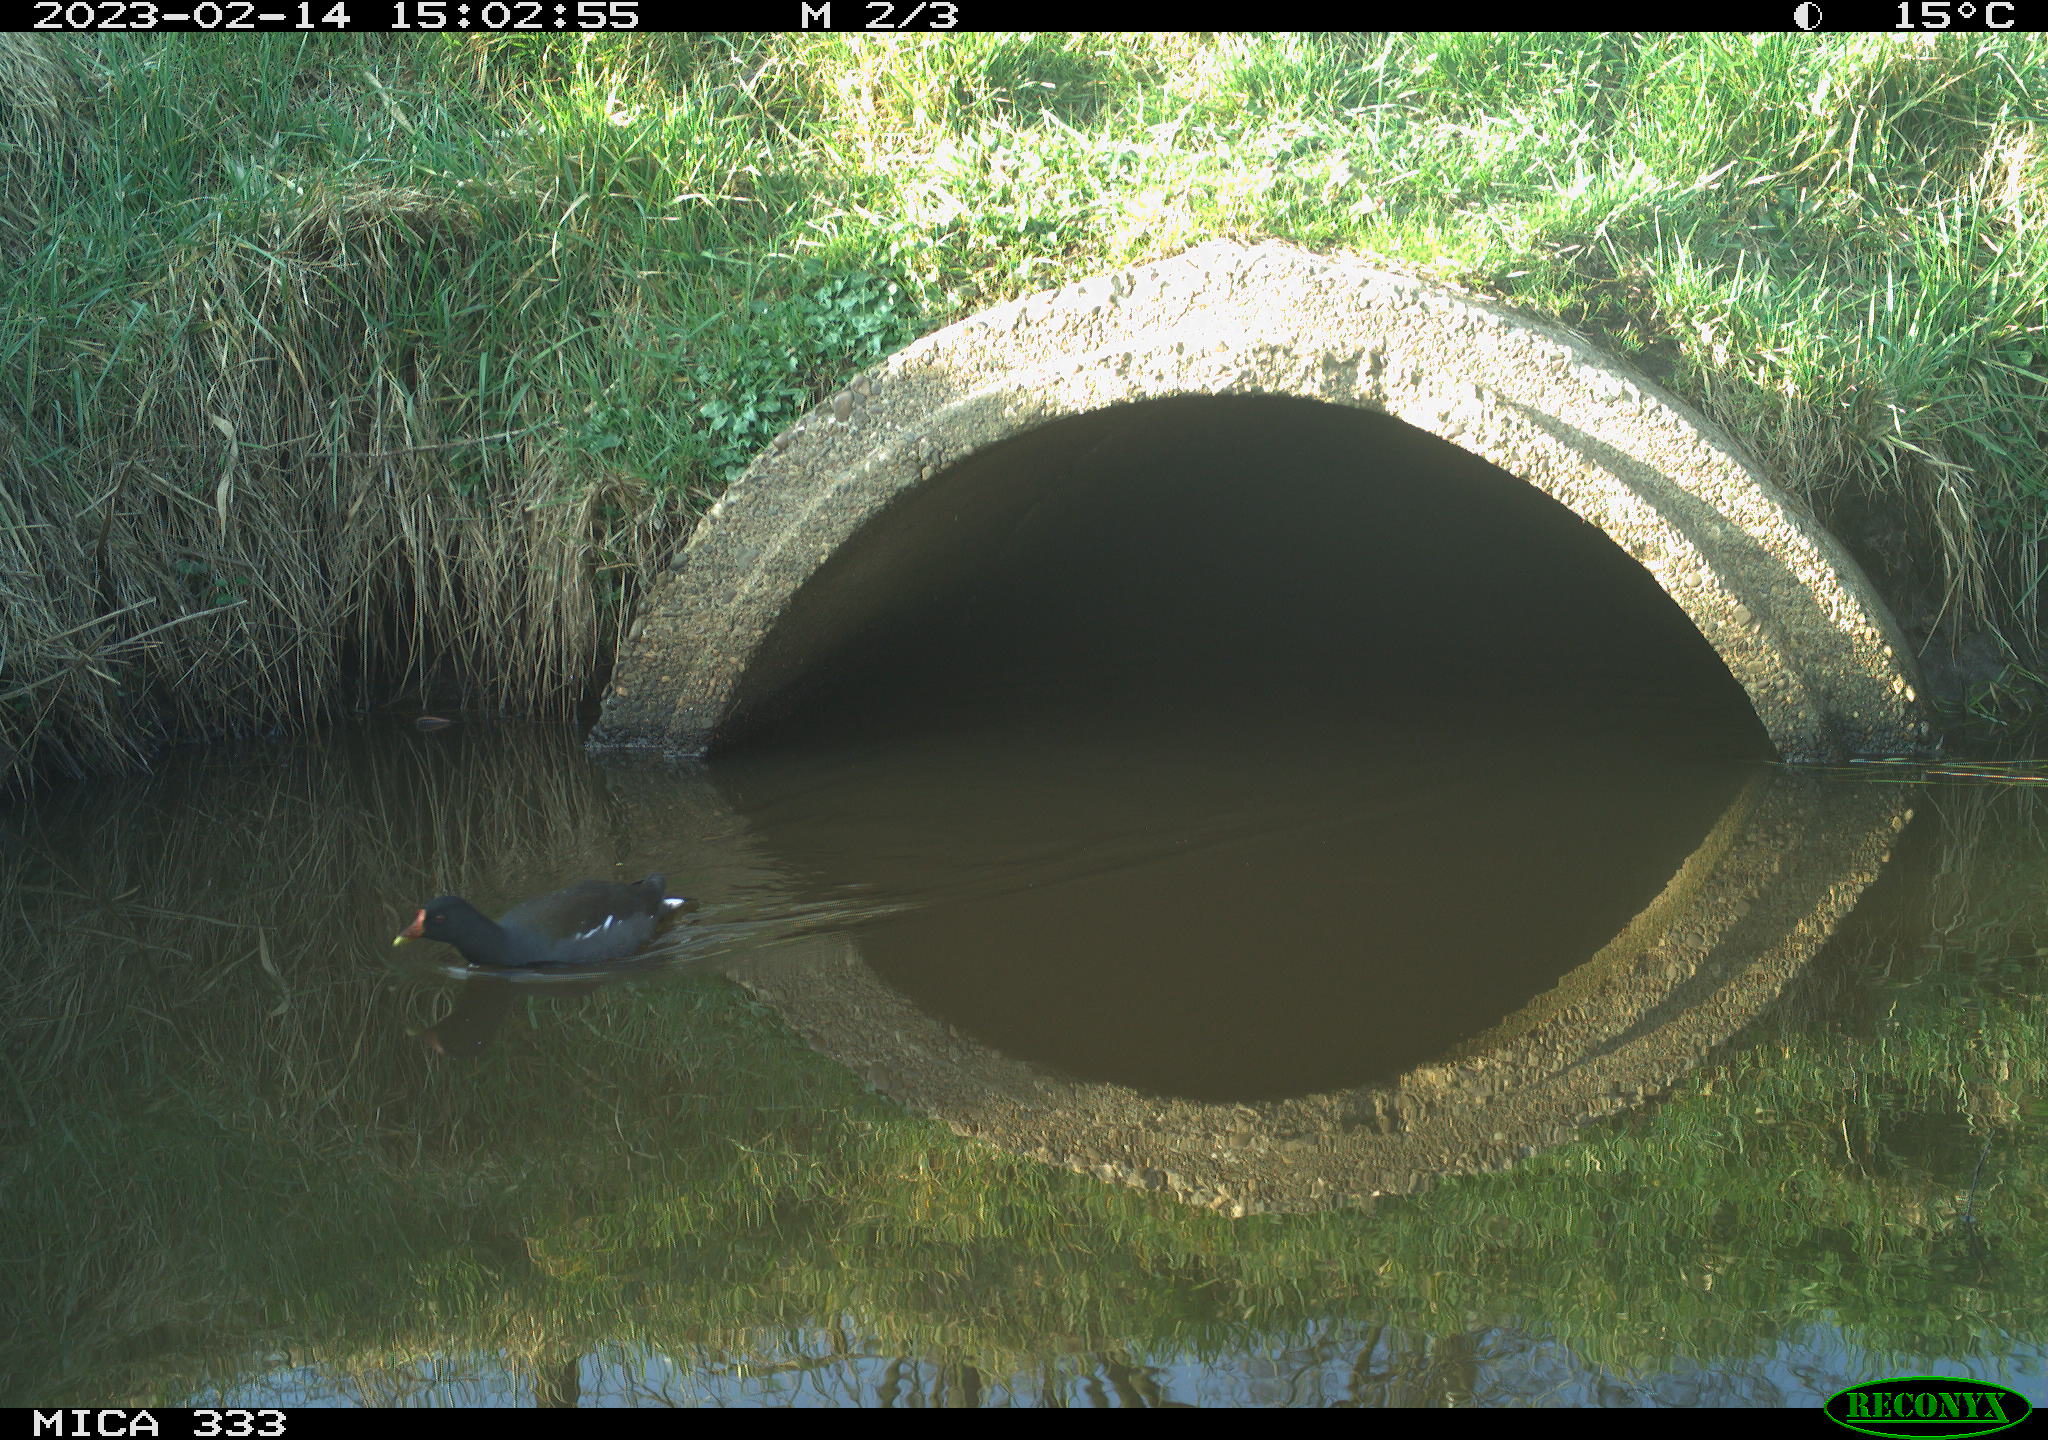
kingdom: Animalia
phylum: Chordata
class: Aves
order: Gruiformes
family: Rallidae
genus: Gallinula
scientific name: Gallinula chloropus
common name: Common moorhen
